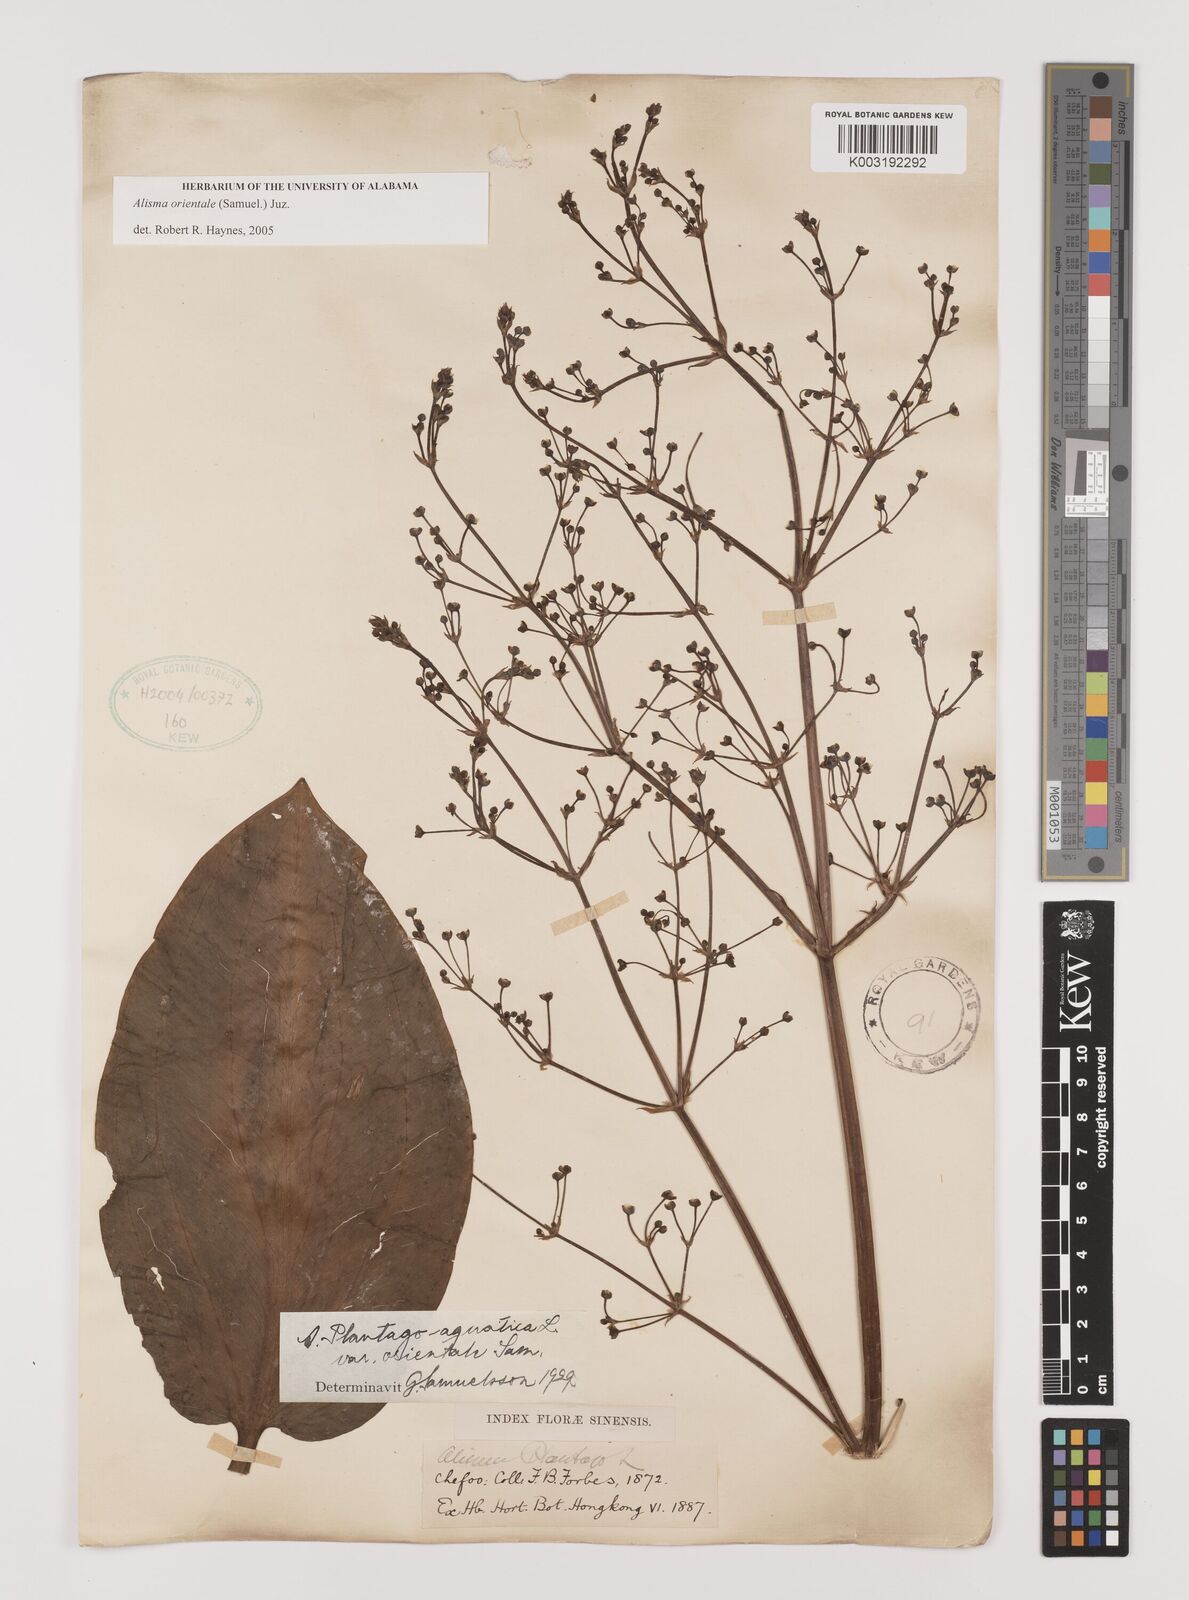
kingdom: Plantae
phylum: Tracheophyta
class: Liliopsida
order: Alismatales
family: Alismataceae
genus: Alisma
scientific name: Alisma plantago-aquatica
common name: Water-plantain
